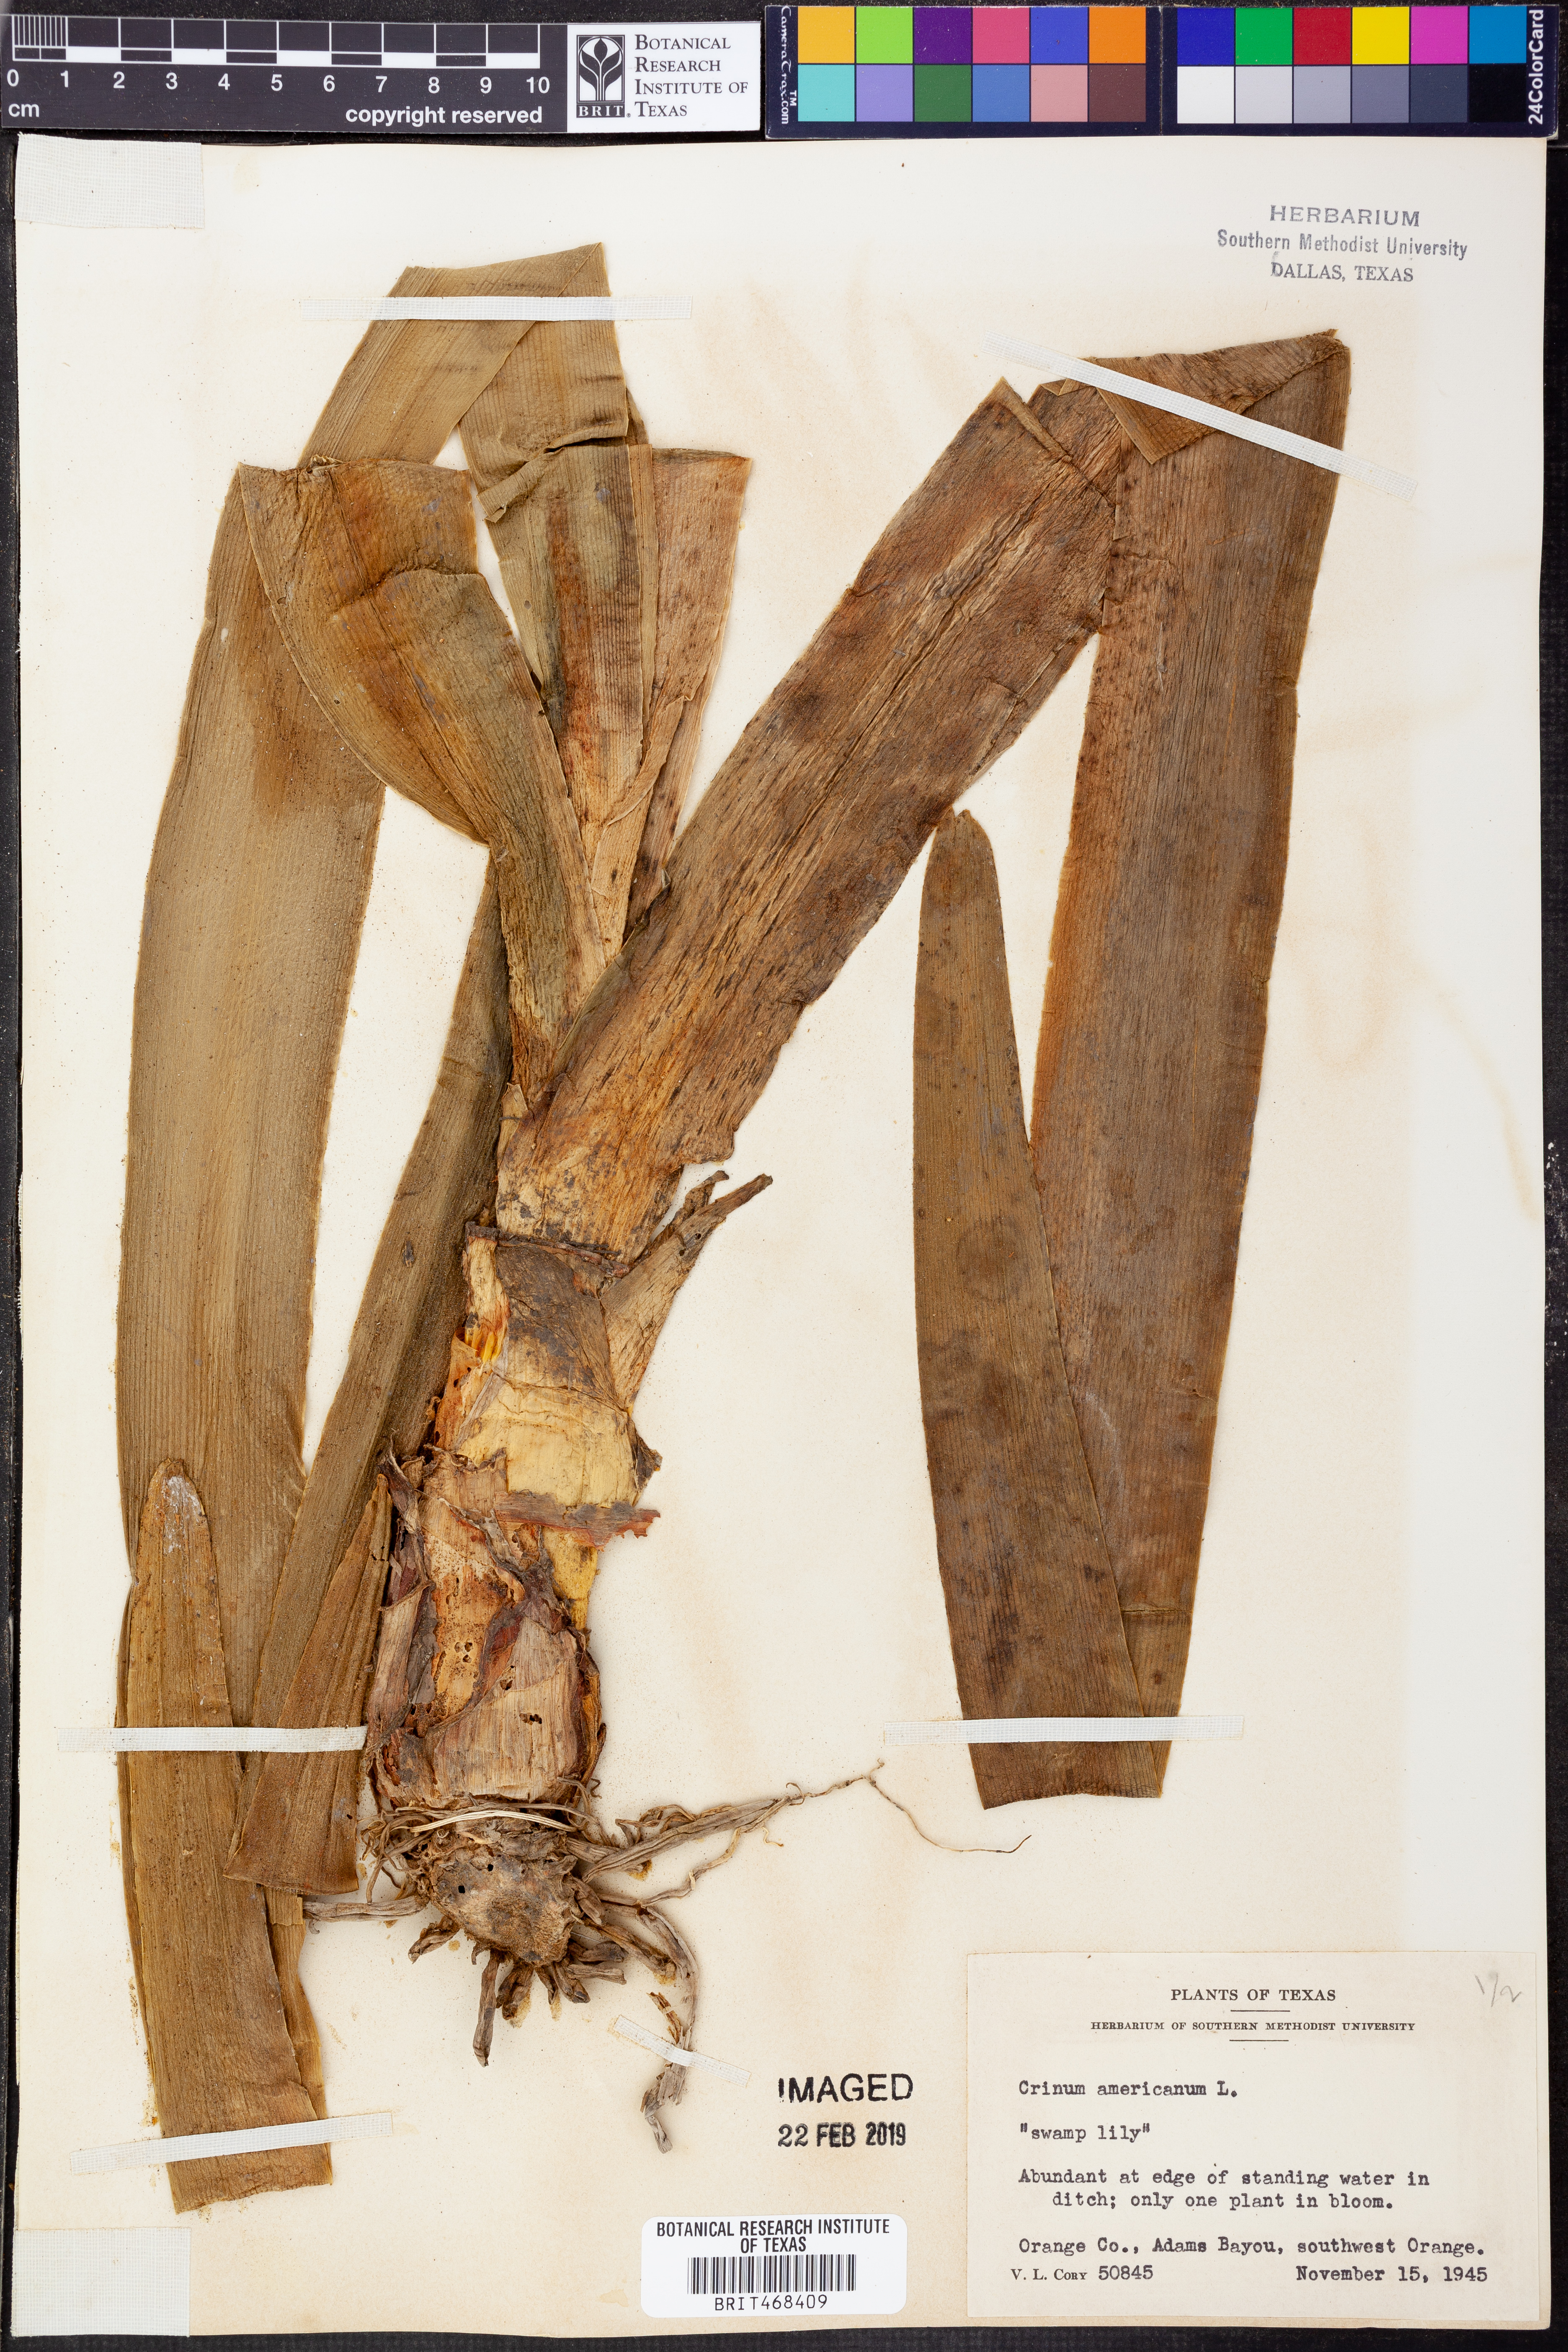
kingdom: Plantae
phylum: Tracheophyta
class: Liliopsida
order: Asparagales
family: Amaryllidaceae
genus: Crinum
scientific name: Crinum americanum
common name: Florida swamp-lily
